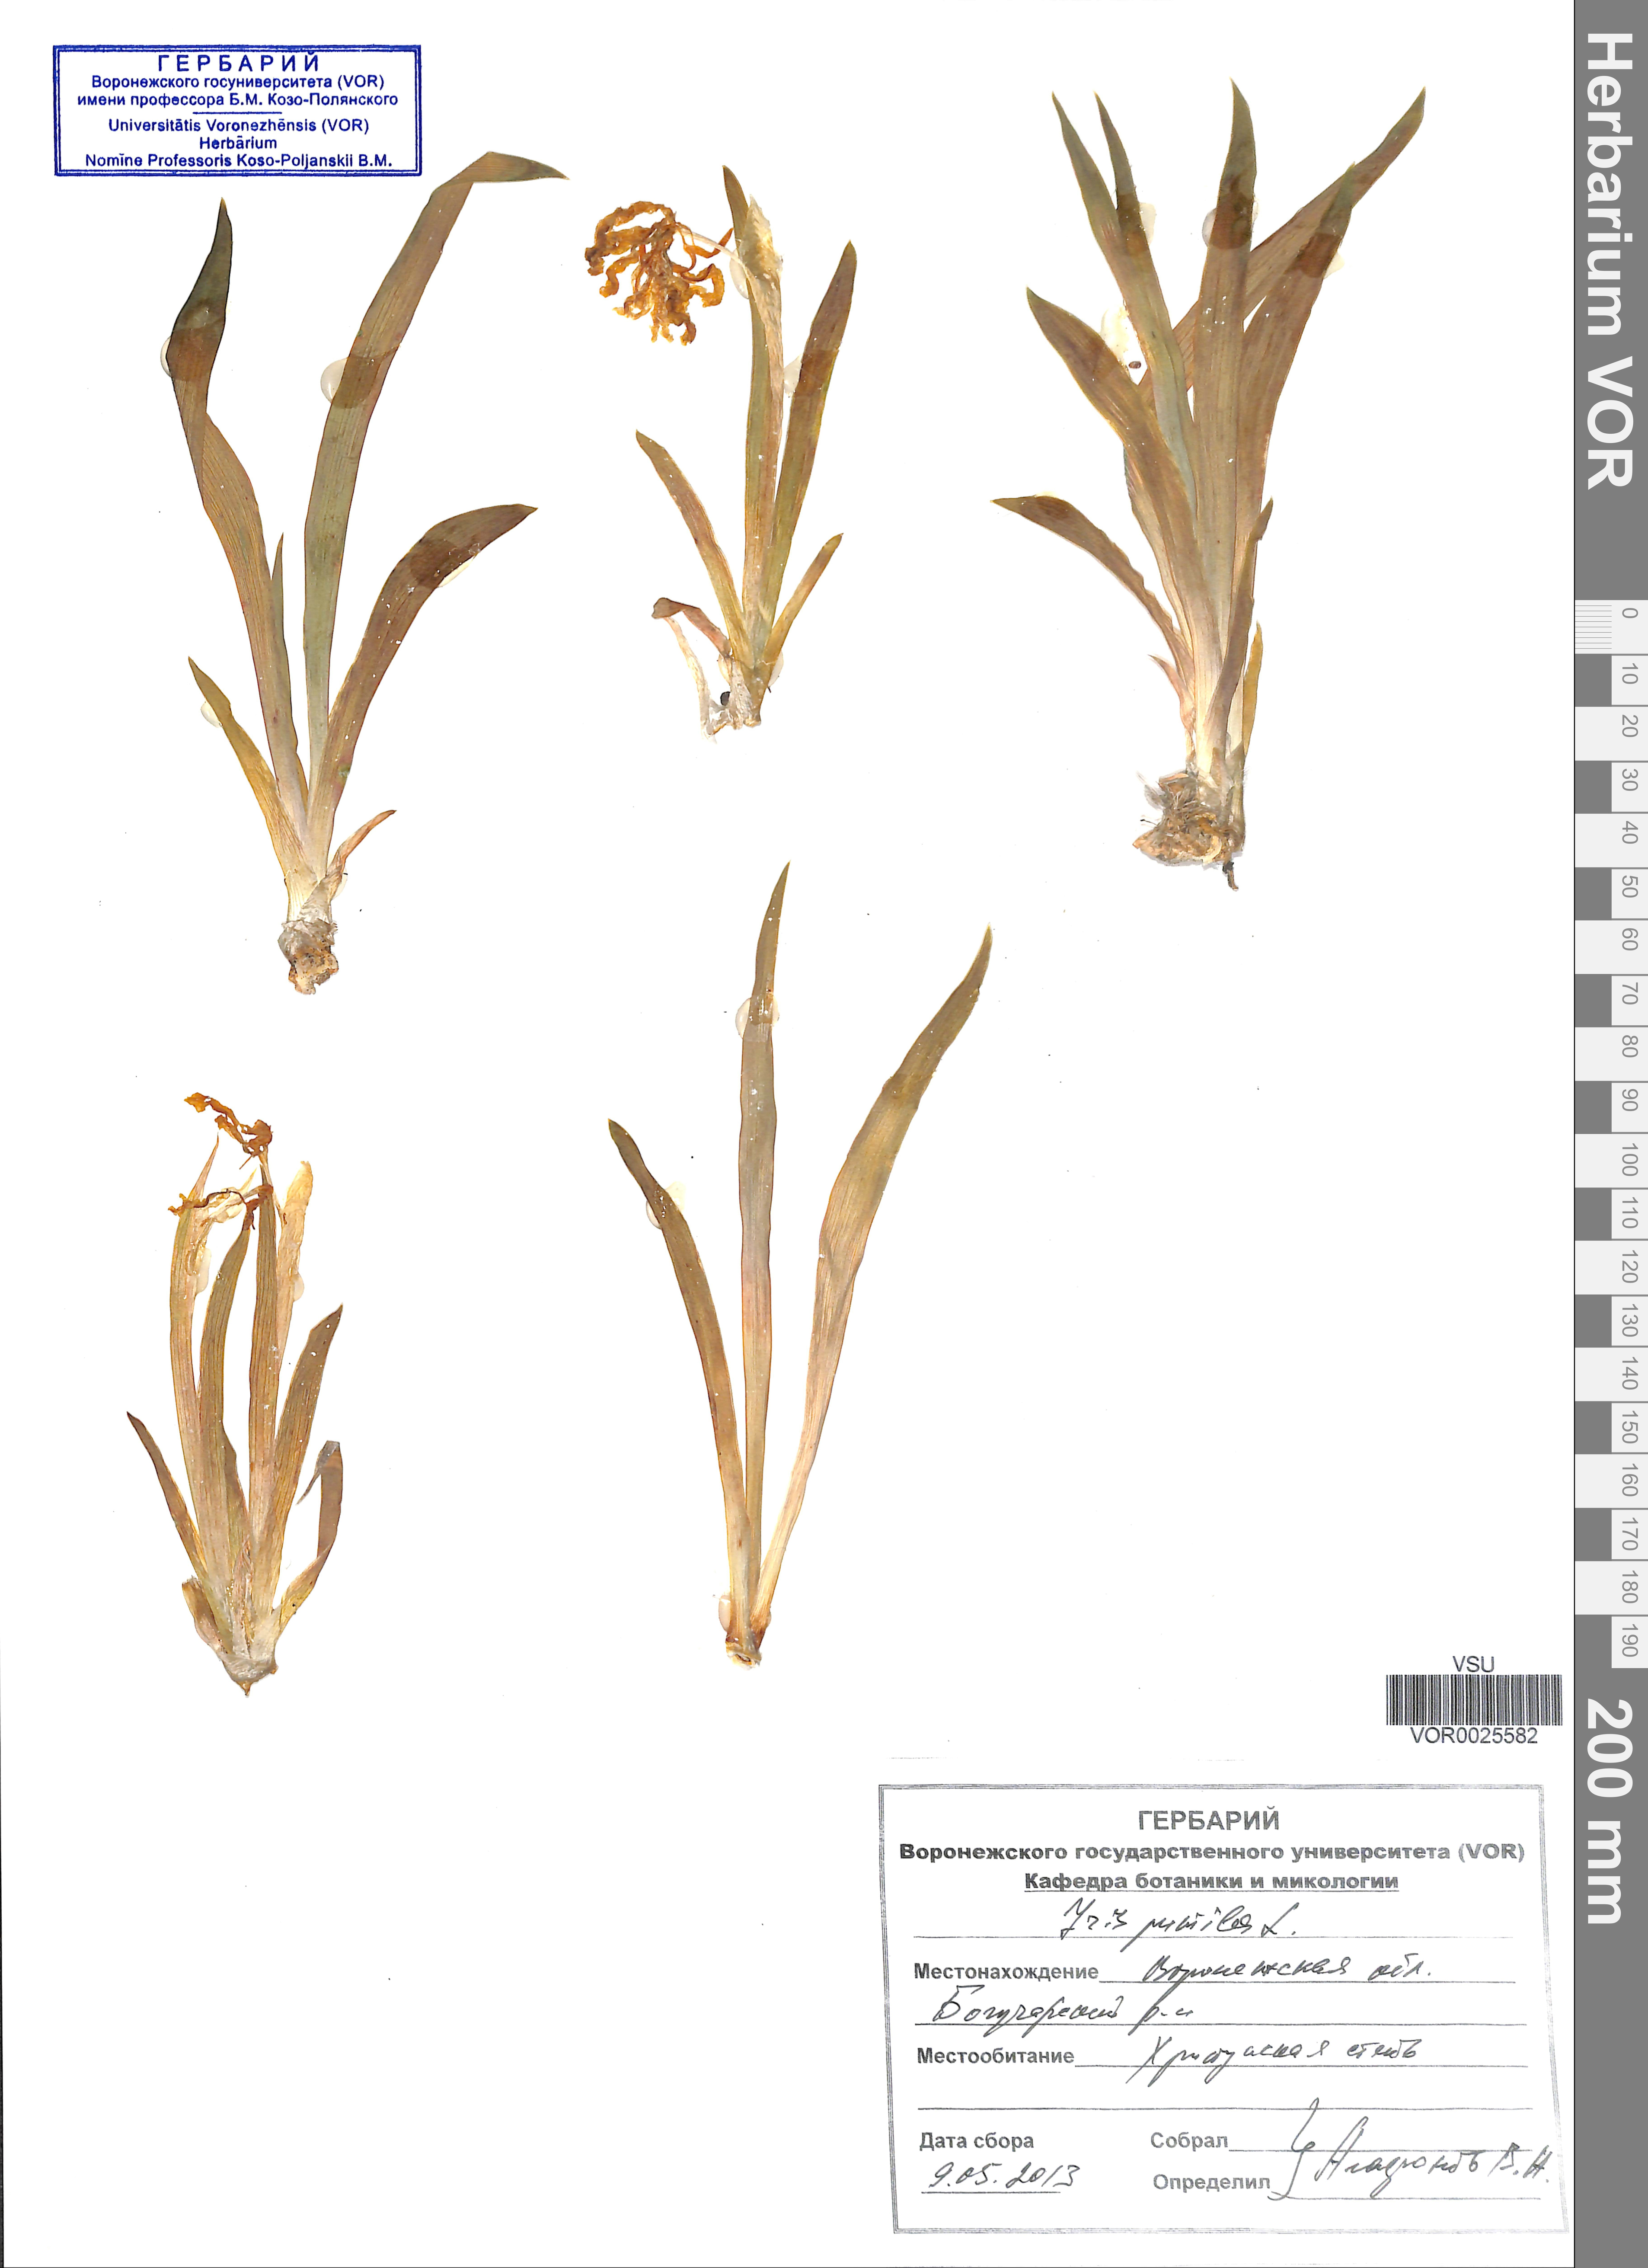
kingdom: Plantae
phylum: Tracheophyta
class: Liliopsida
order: Asparagales
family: Iridaceae
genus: Iris
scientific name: Iris pumila
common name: Dwarf iris
